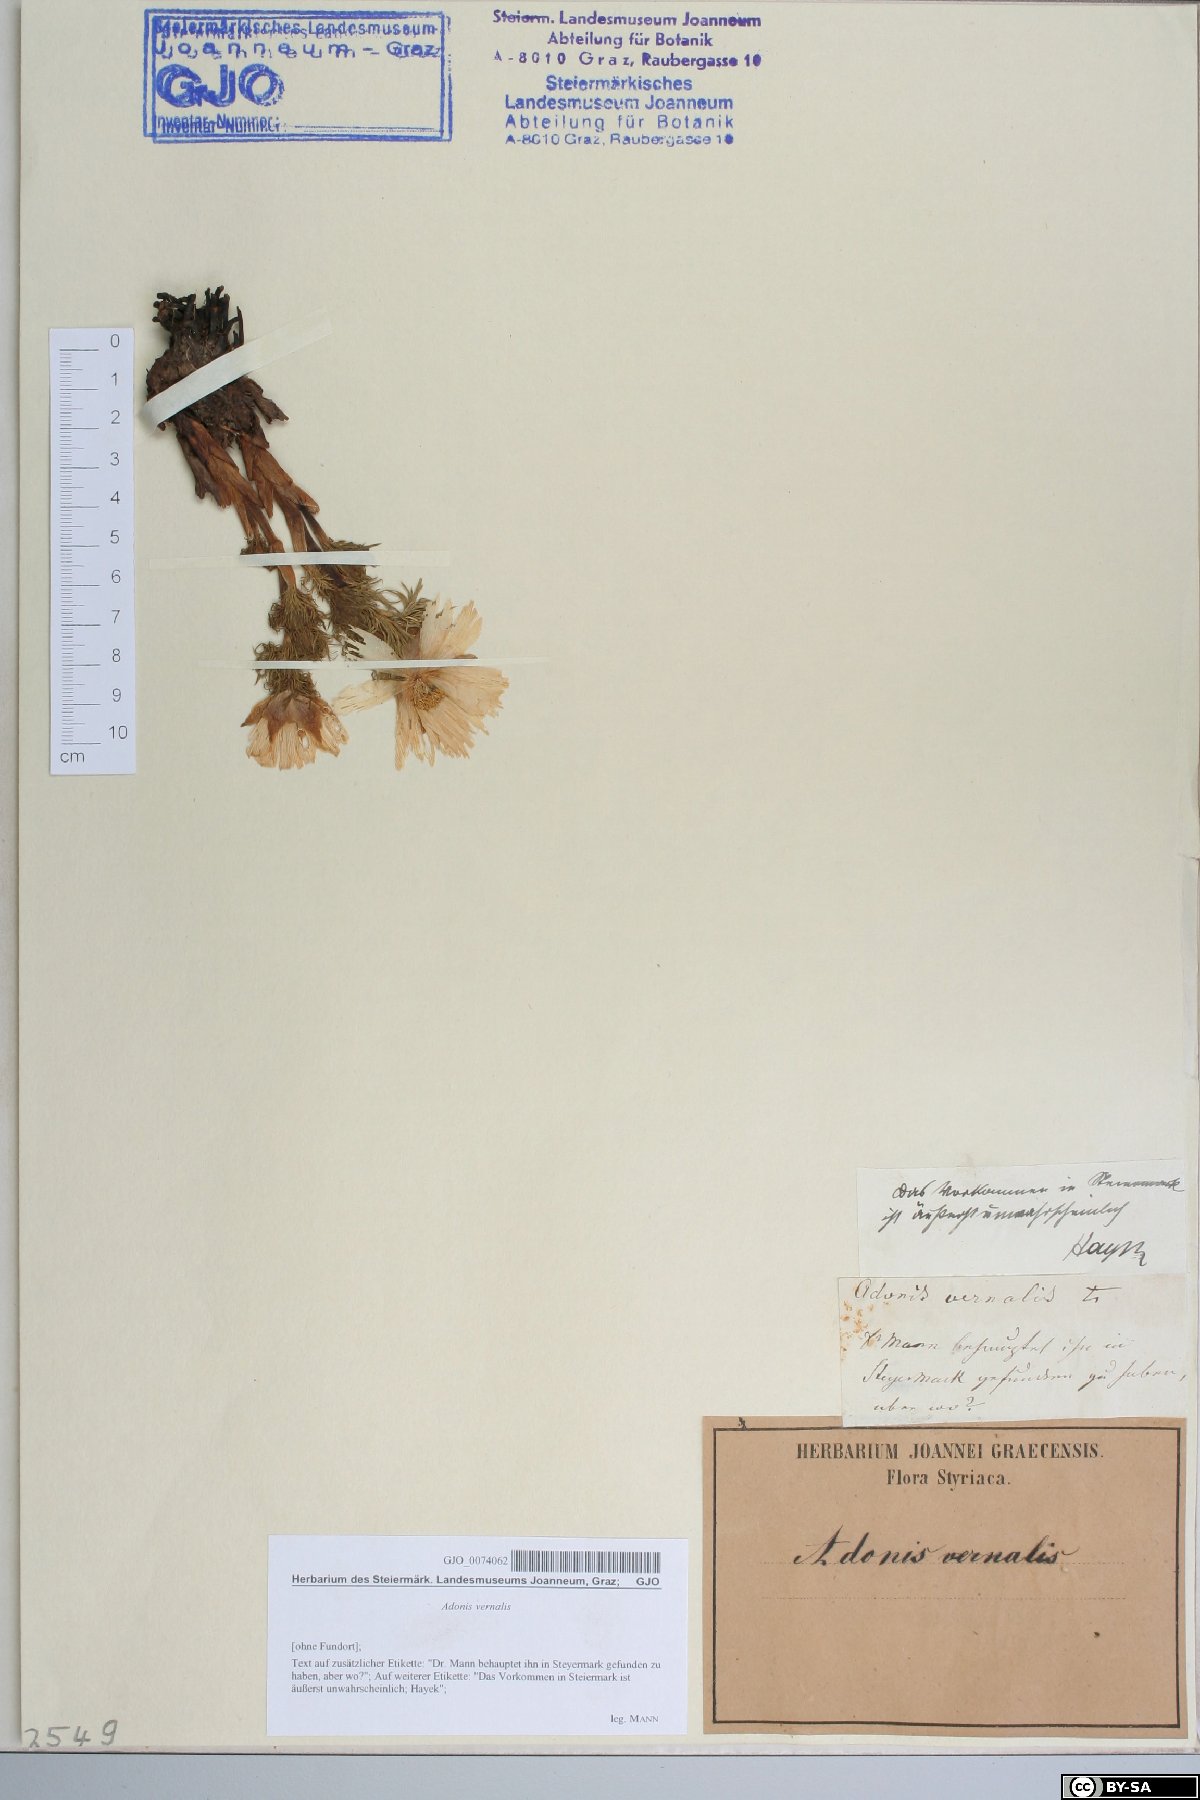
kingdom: Plantae
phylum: Tracheophyta
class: Magnoliopsida
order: Ranunculales
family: Ranunculaceae
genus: Adonis
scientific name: Adonis vernalis
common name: Yellow pheasants-eye
